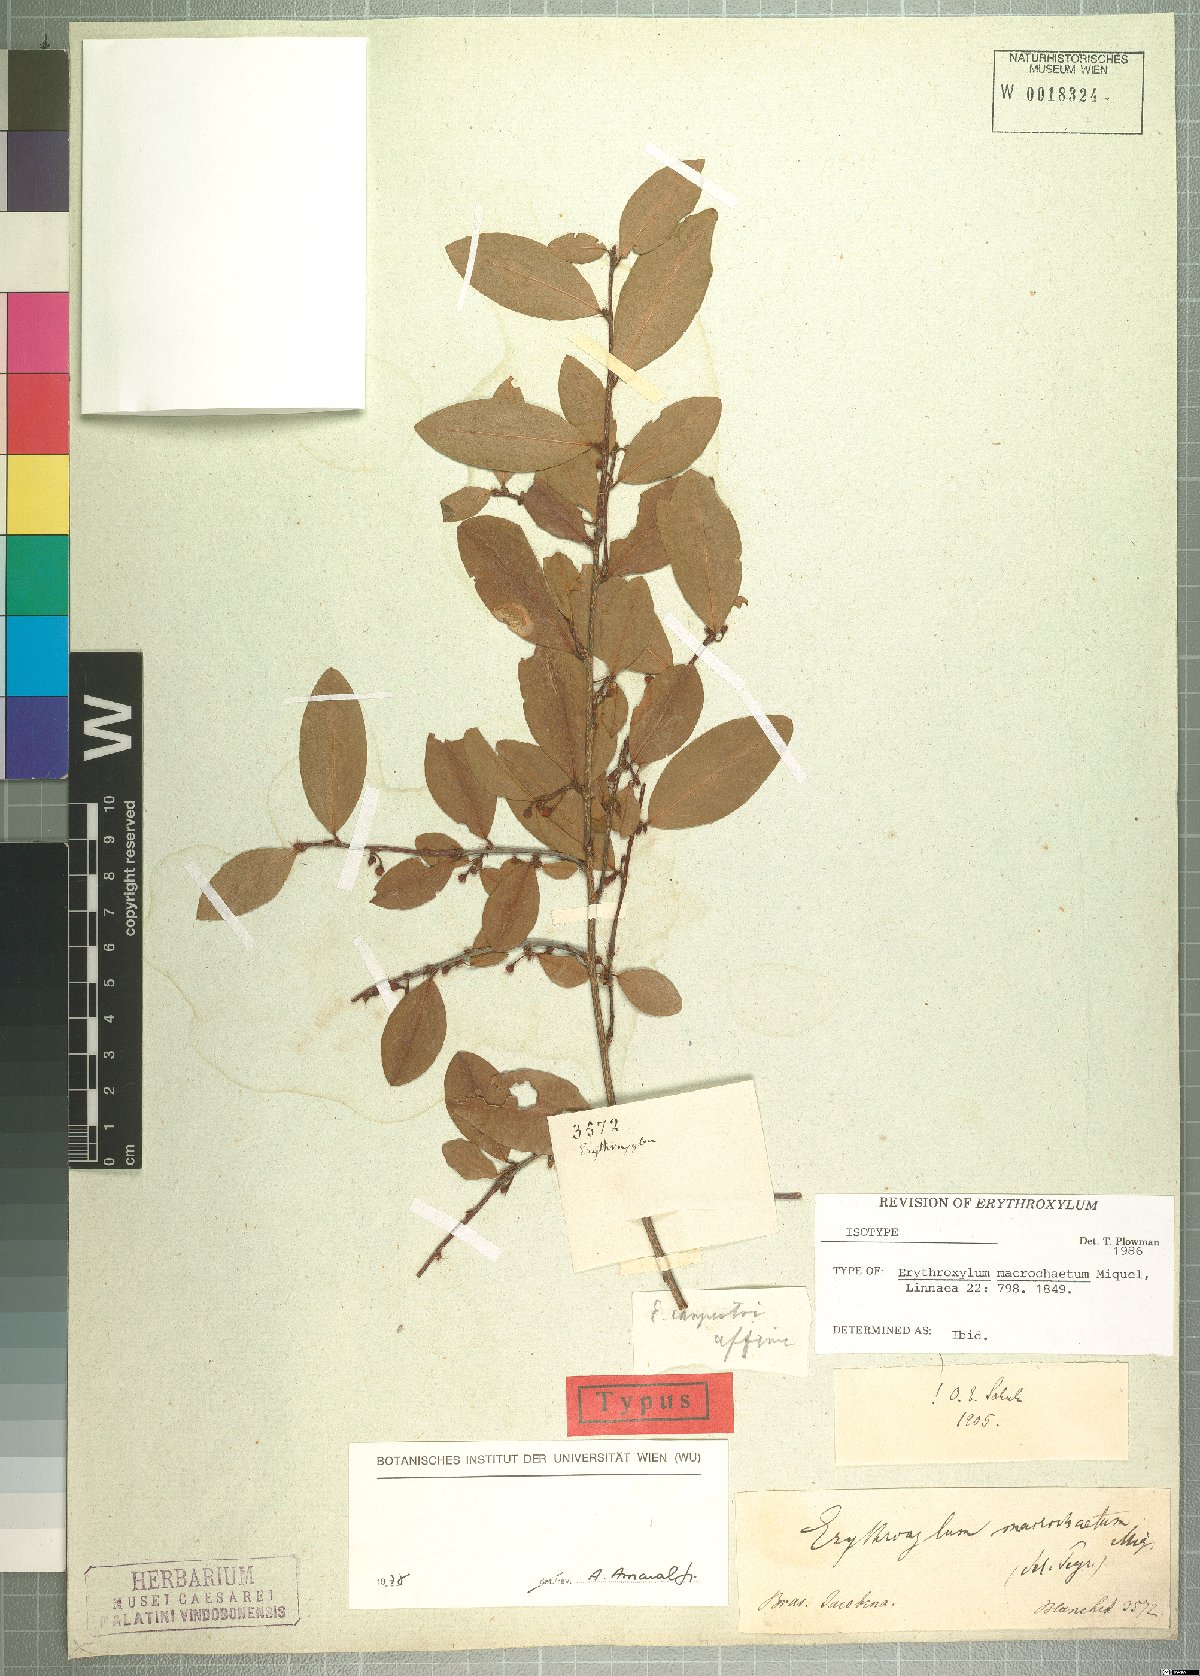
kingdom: Plantae
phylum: Tracheophyta
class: Magnoliopsida
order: Malpighiales
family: Erythroxylaceae
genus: Erythroxylum
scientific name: Erythroxylum macrochaetum
